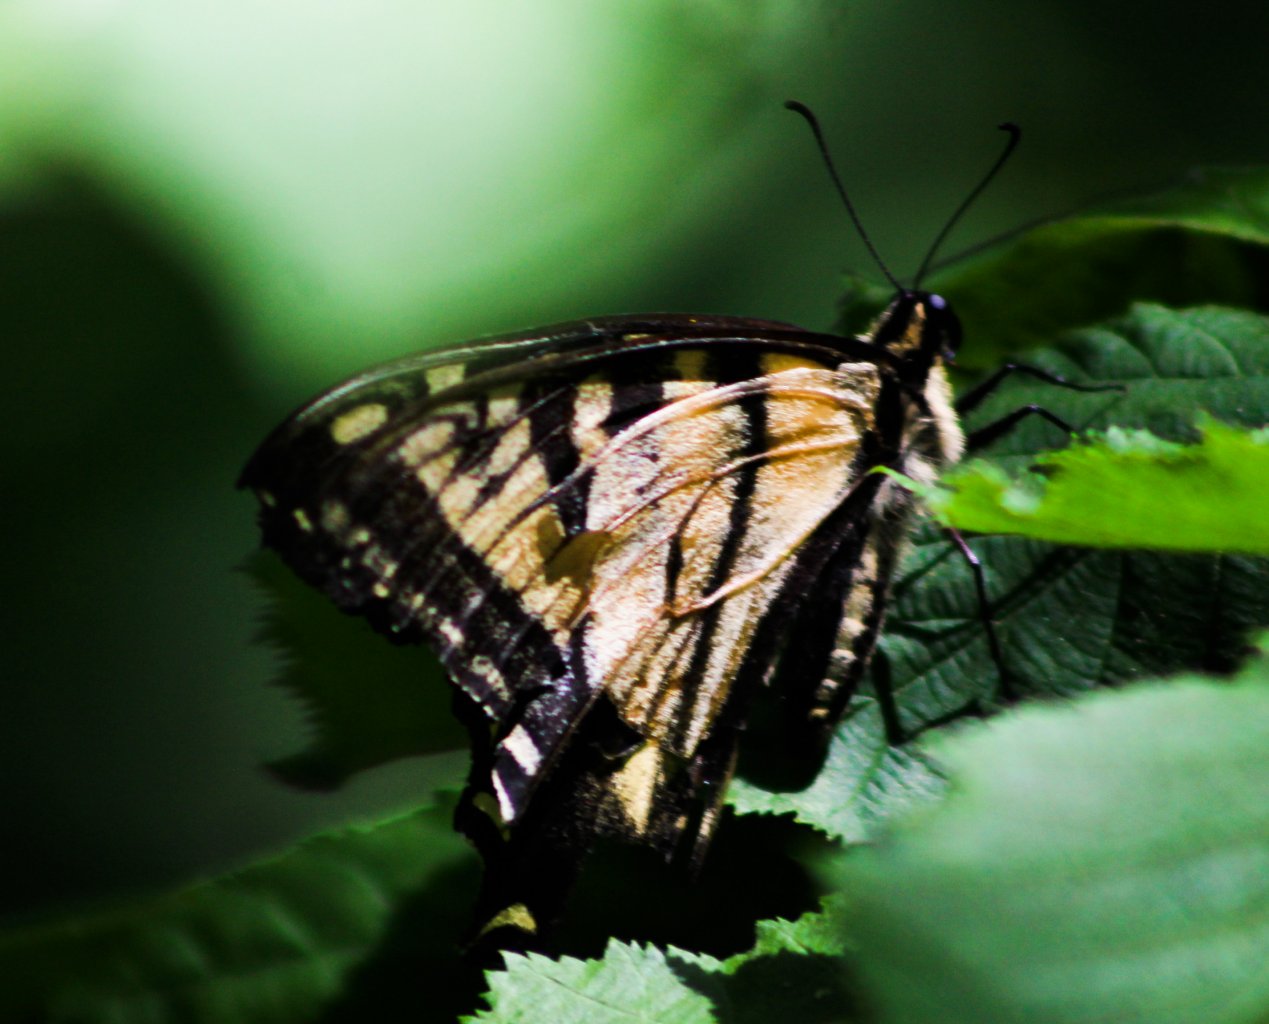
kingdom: Animalia
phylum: Arthropoda
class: Insecta
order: Lepidoptera
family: Papilionidae
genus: Pterourus
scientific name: Pterourus canadensis
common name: Canadian Tiger Swallowtail
